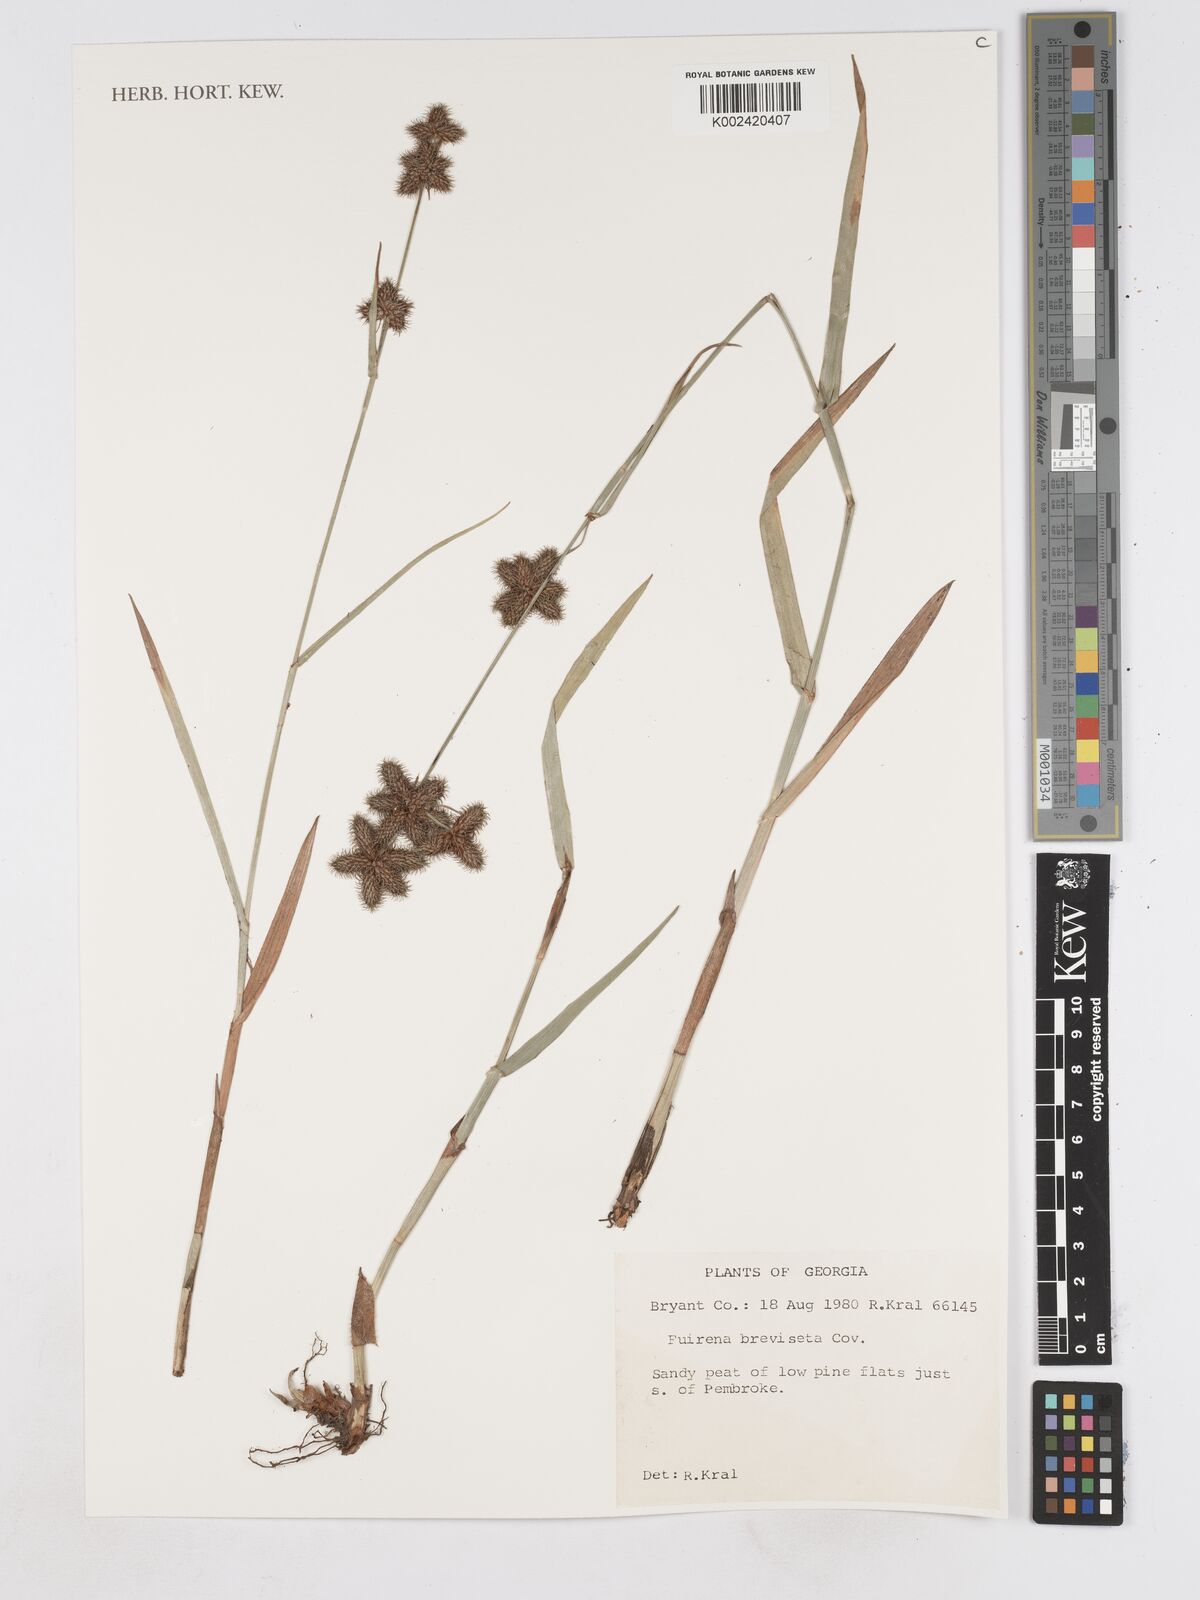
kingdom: Plantae
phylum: Tracheophyta
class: Liliopsida
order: Poales
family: Cyperaceae
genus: Fuirena
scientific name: Fuirena breviseta
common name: Saltmarsh umbrella sedge
